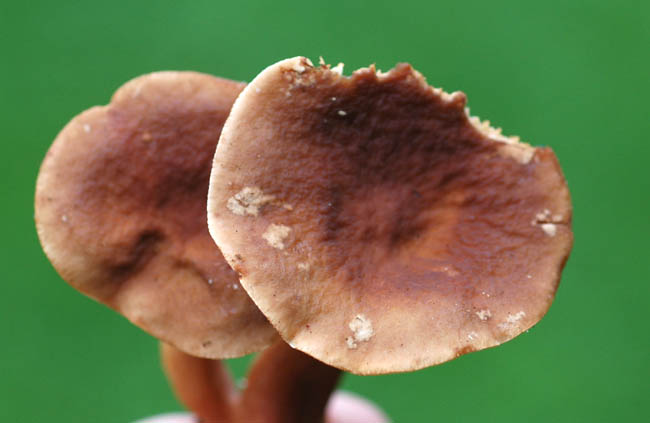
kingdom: Fungi
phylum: Basidiomycota
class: Agaricomycetes
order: Russulales
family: Russulaceae
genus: Lactarius
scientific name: Lactarius subdulcis
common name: sødlig mælkehat
